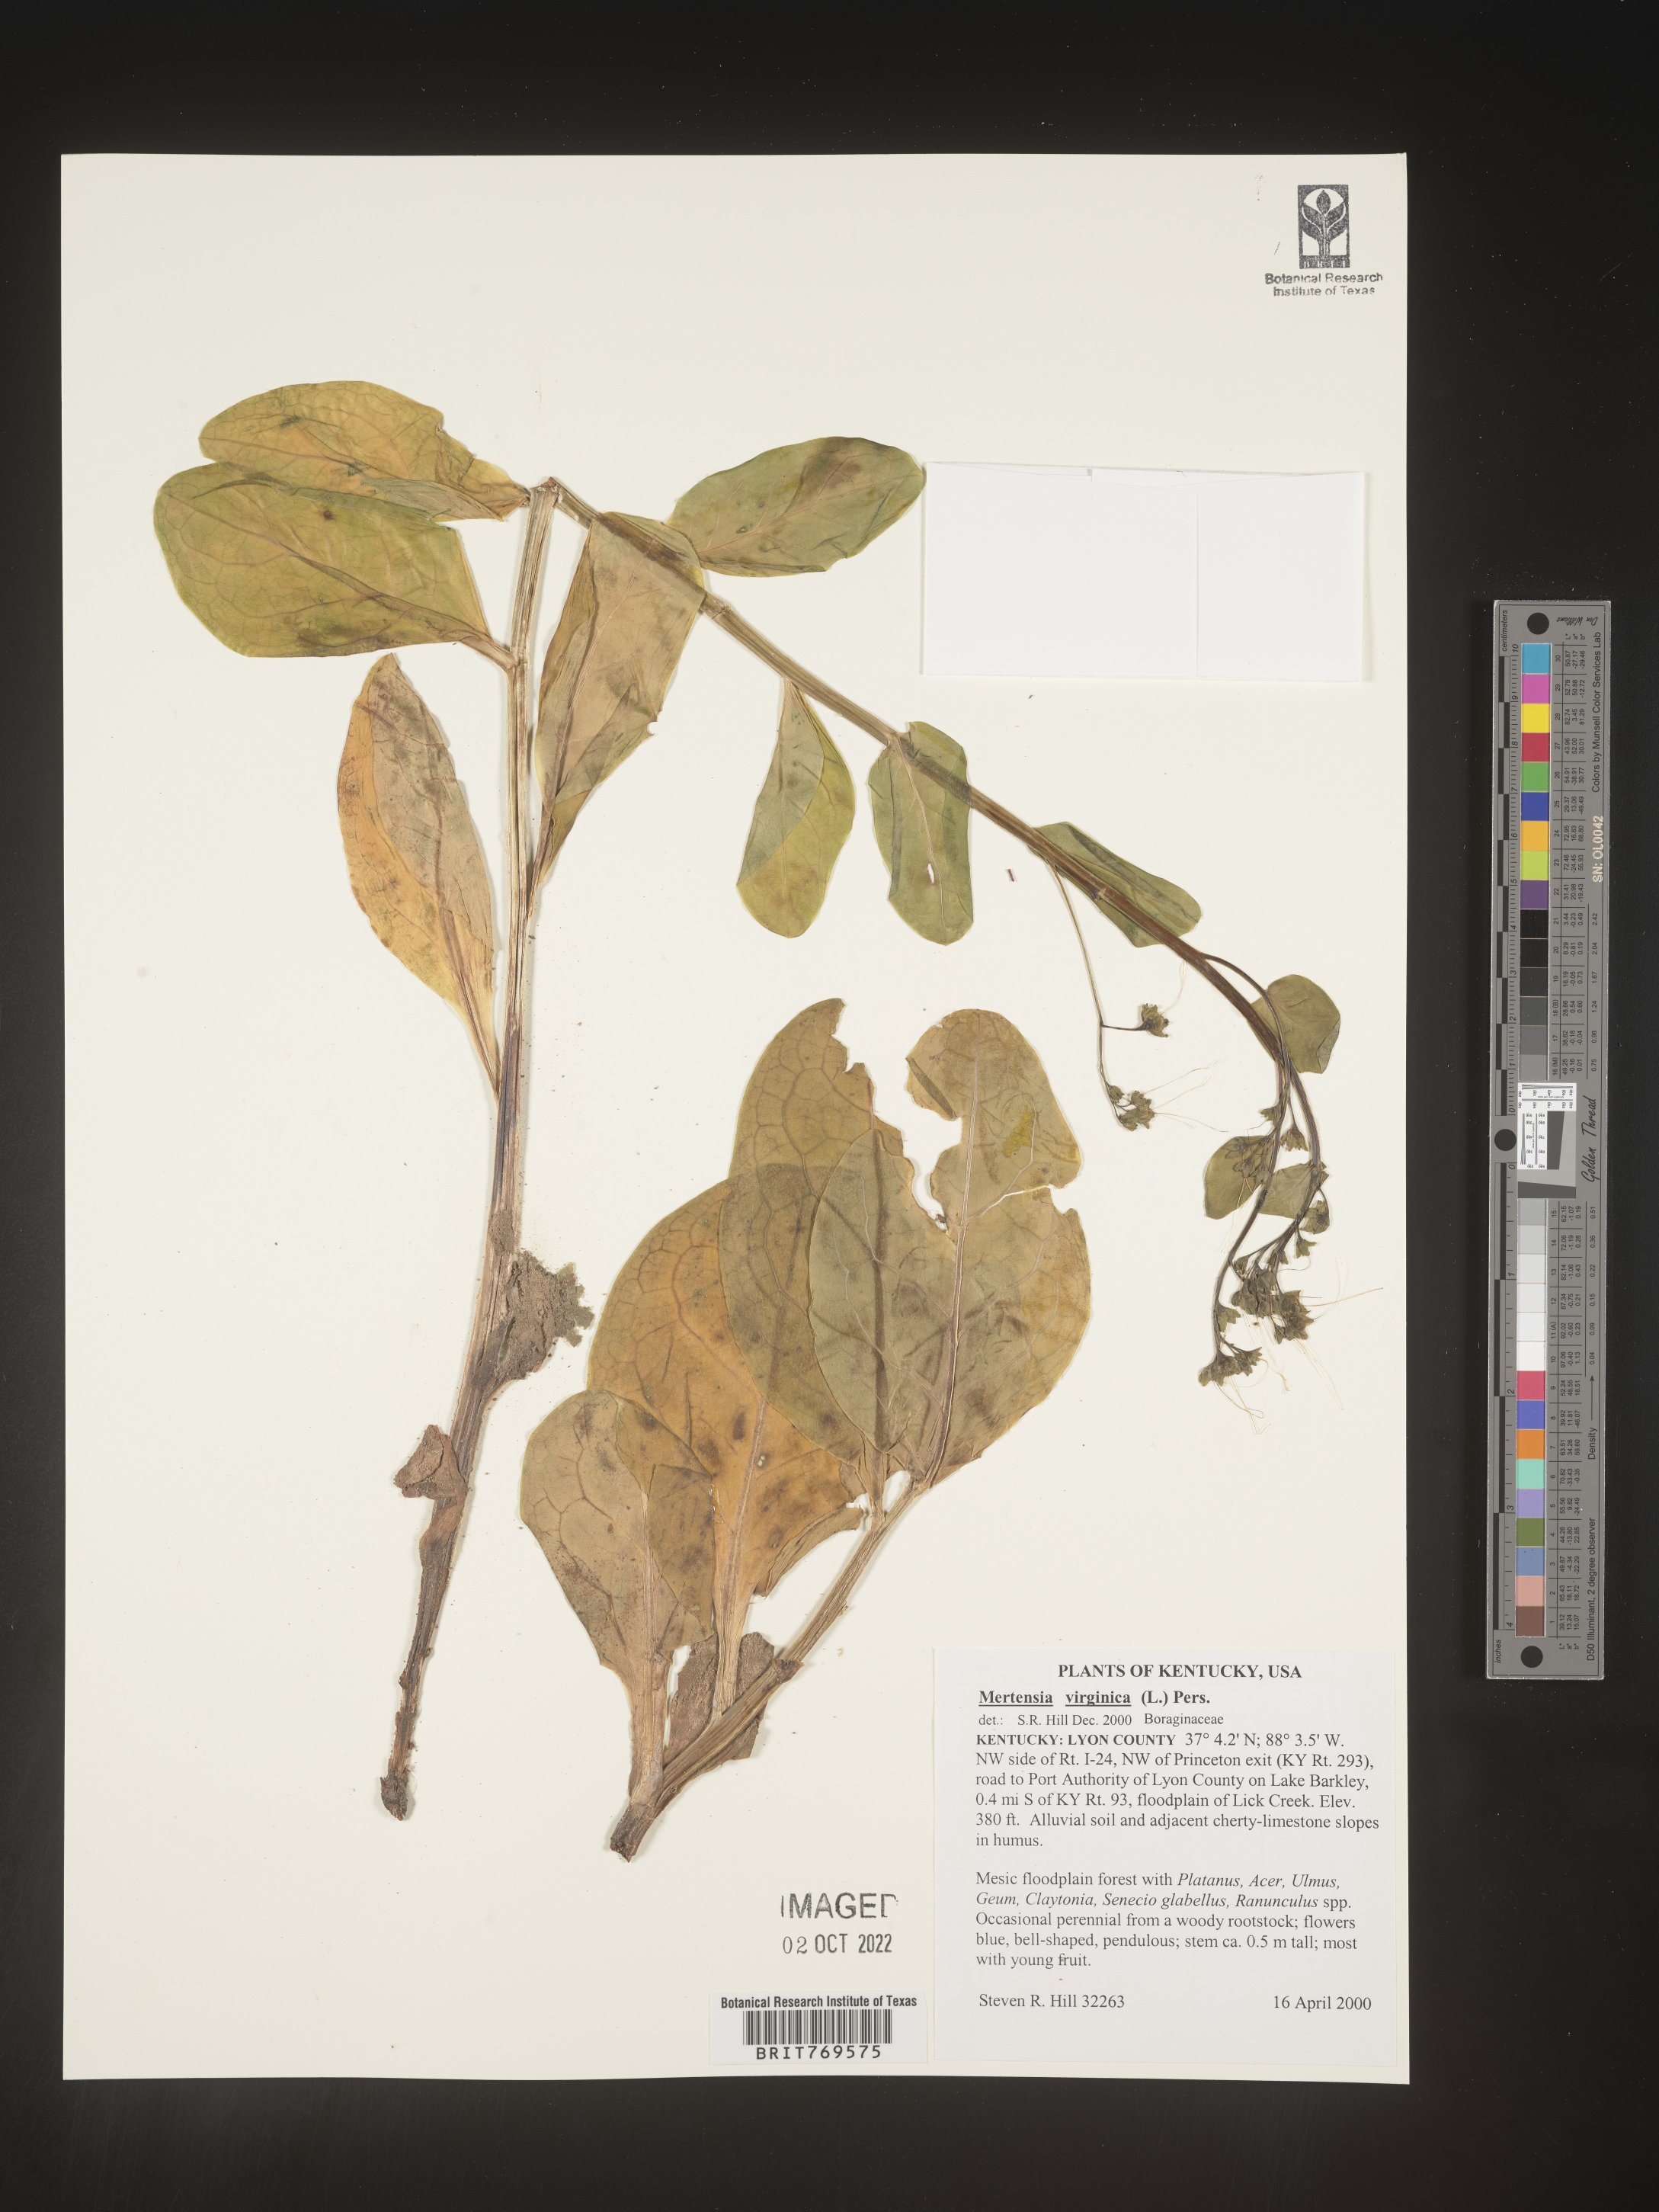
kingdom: Plantae
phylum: Tracheophyta
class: Magnoliopsida
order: Boraginales
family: Boraginaceae
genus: Mertensia
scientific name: Mertensia virginica
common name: Virginia bluebells
